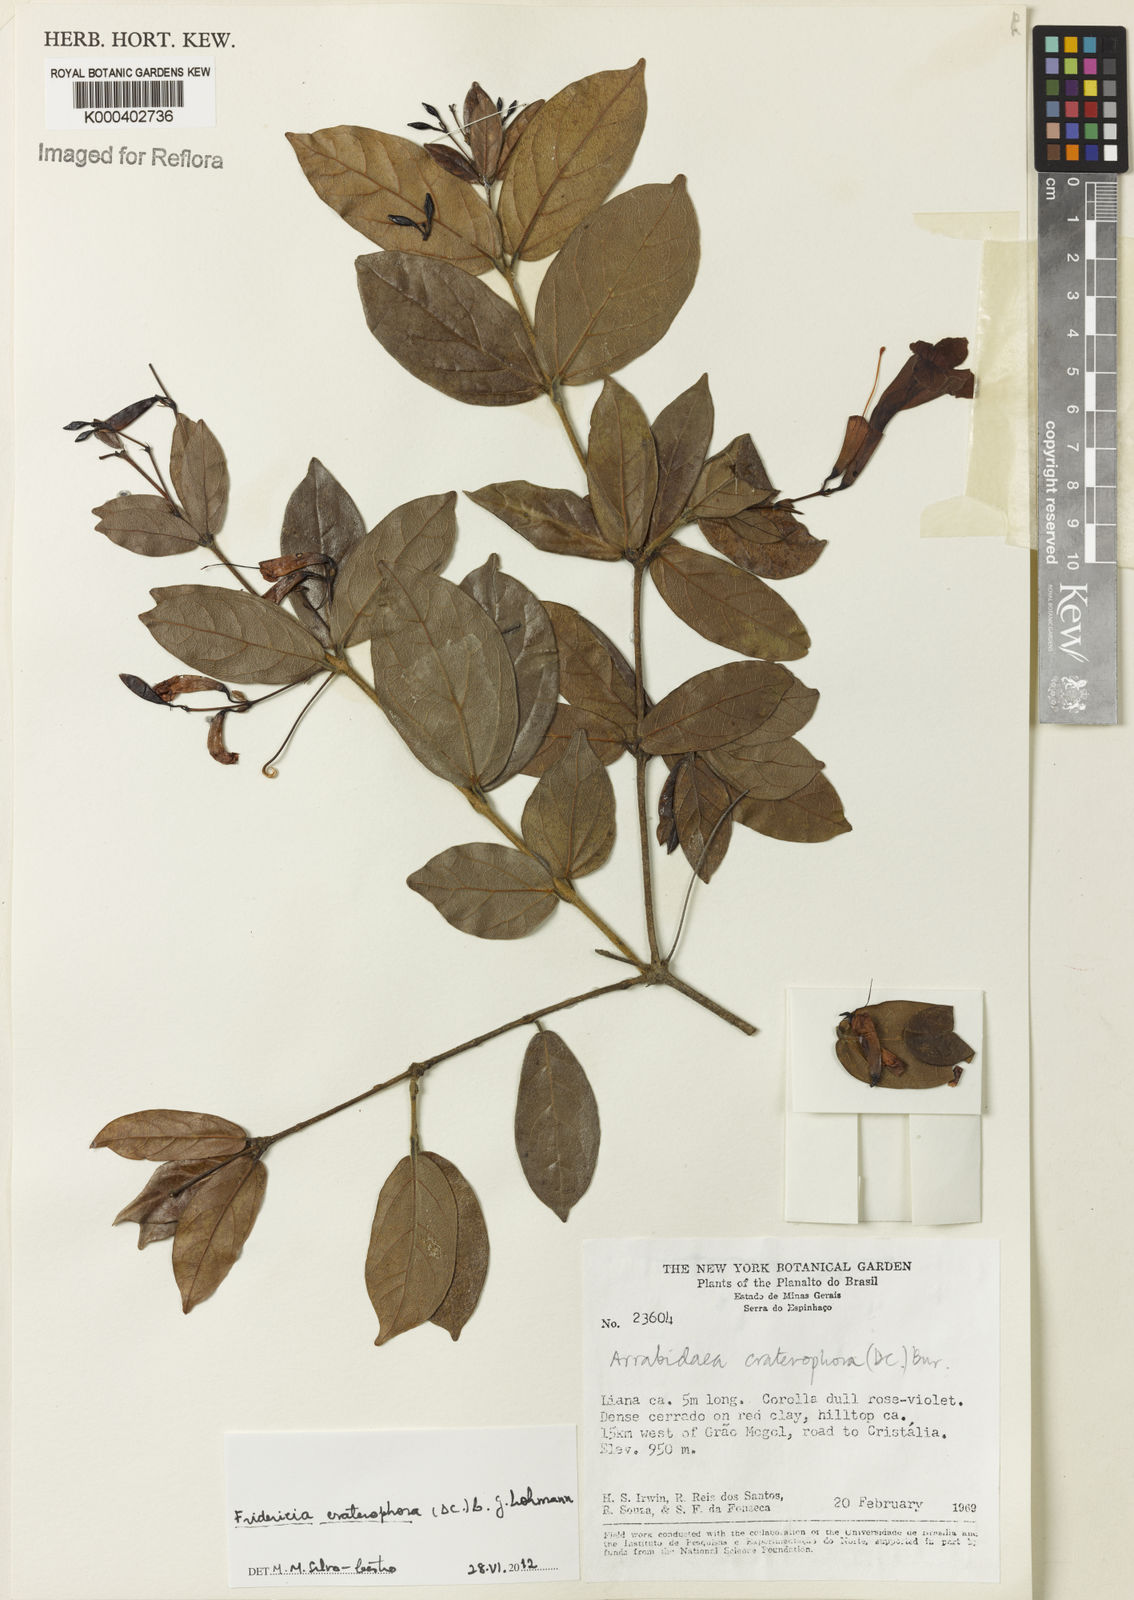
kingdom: Plantae
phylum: Tracheophyta
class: Magnoliopsida
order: Lamiales
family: Bignoniaceae
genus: Fridericia
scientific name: Fridericia craterophora
